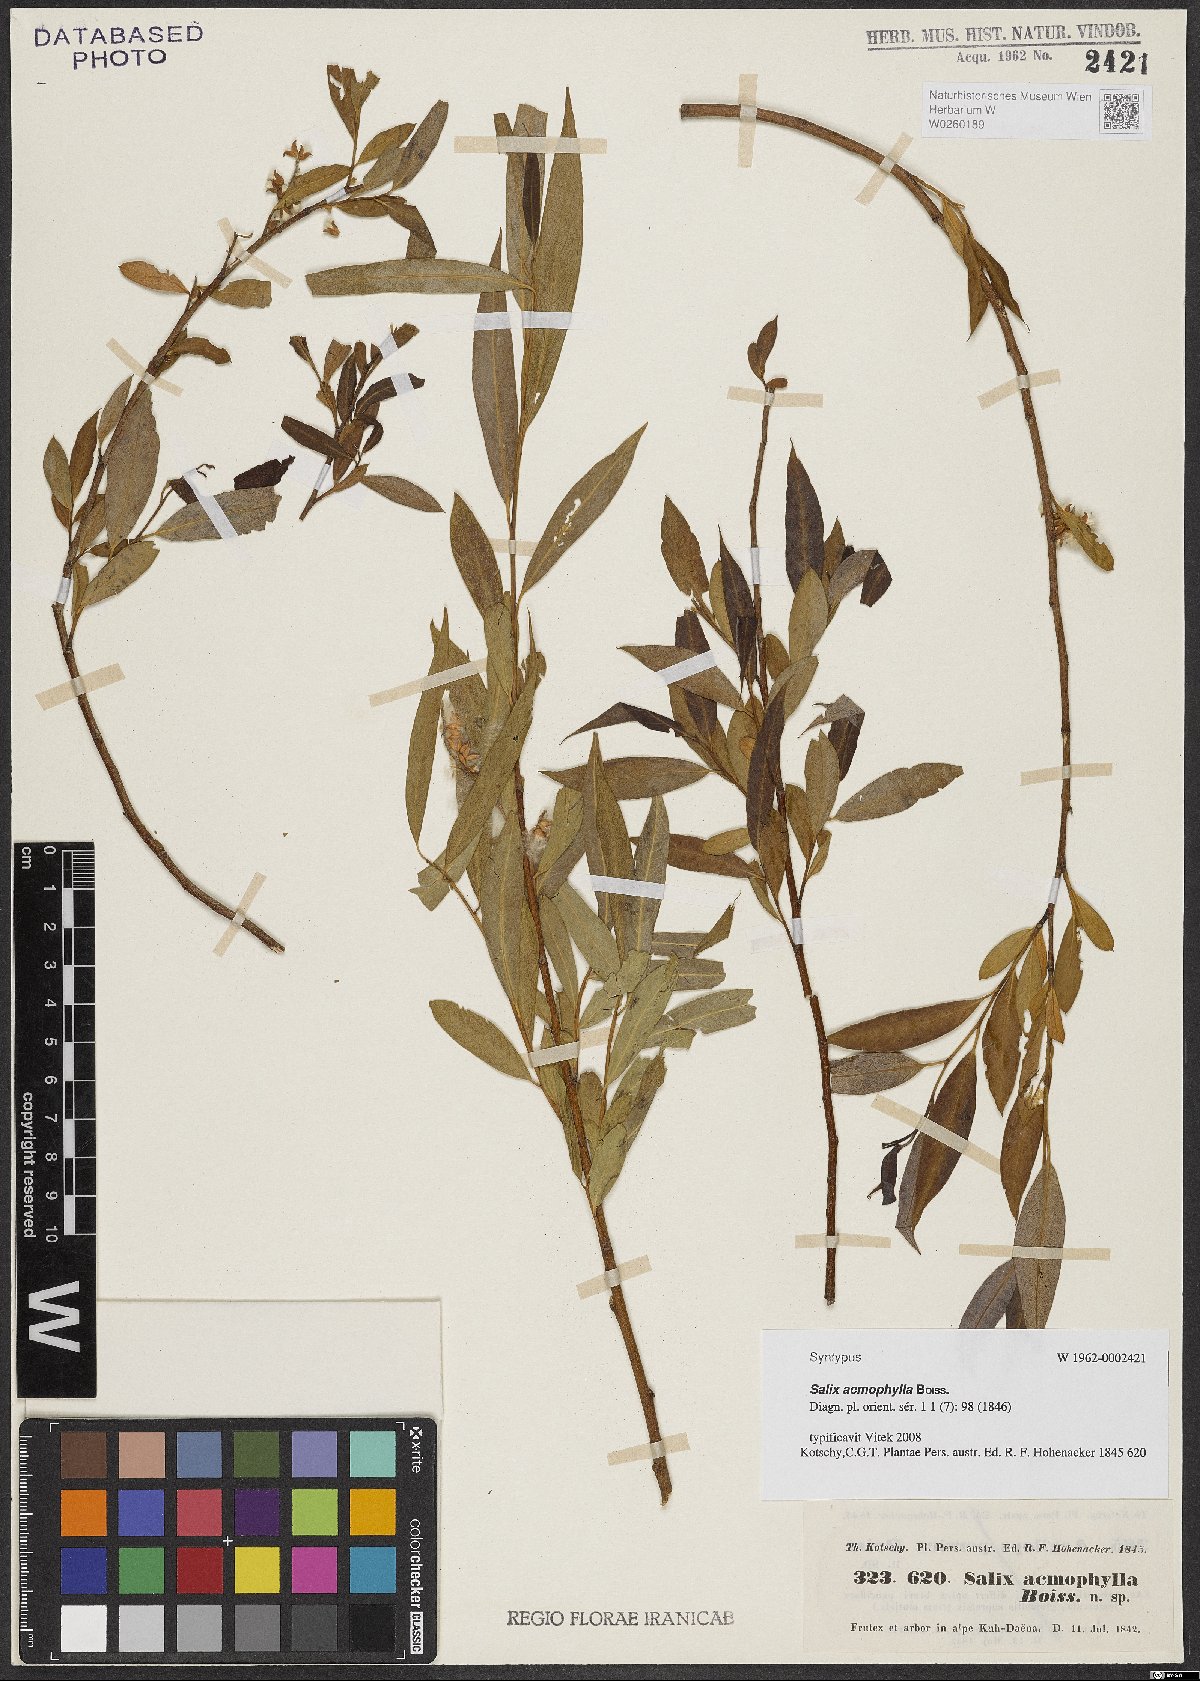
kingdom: Plantae
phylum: Tracheophyta
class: Magnoliopsida
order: Malpighiales
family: Salicaceae
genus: Salix
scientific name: Salix acmophylla
